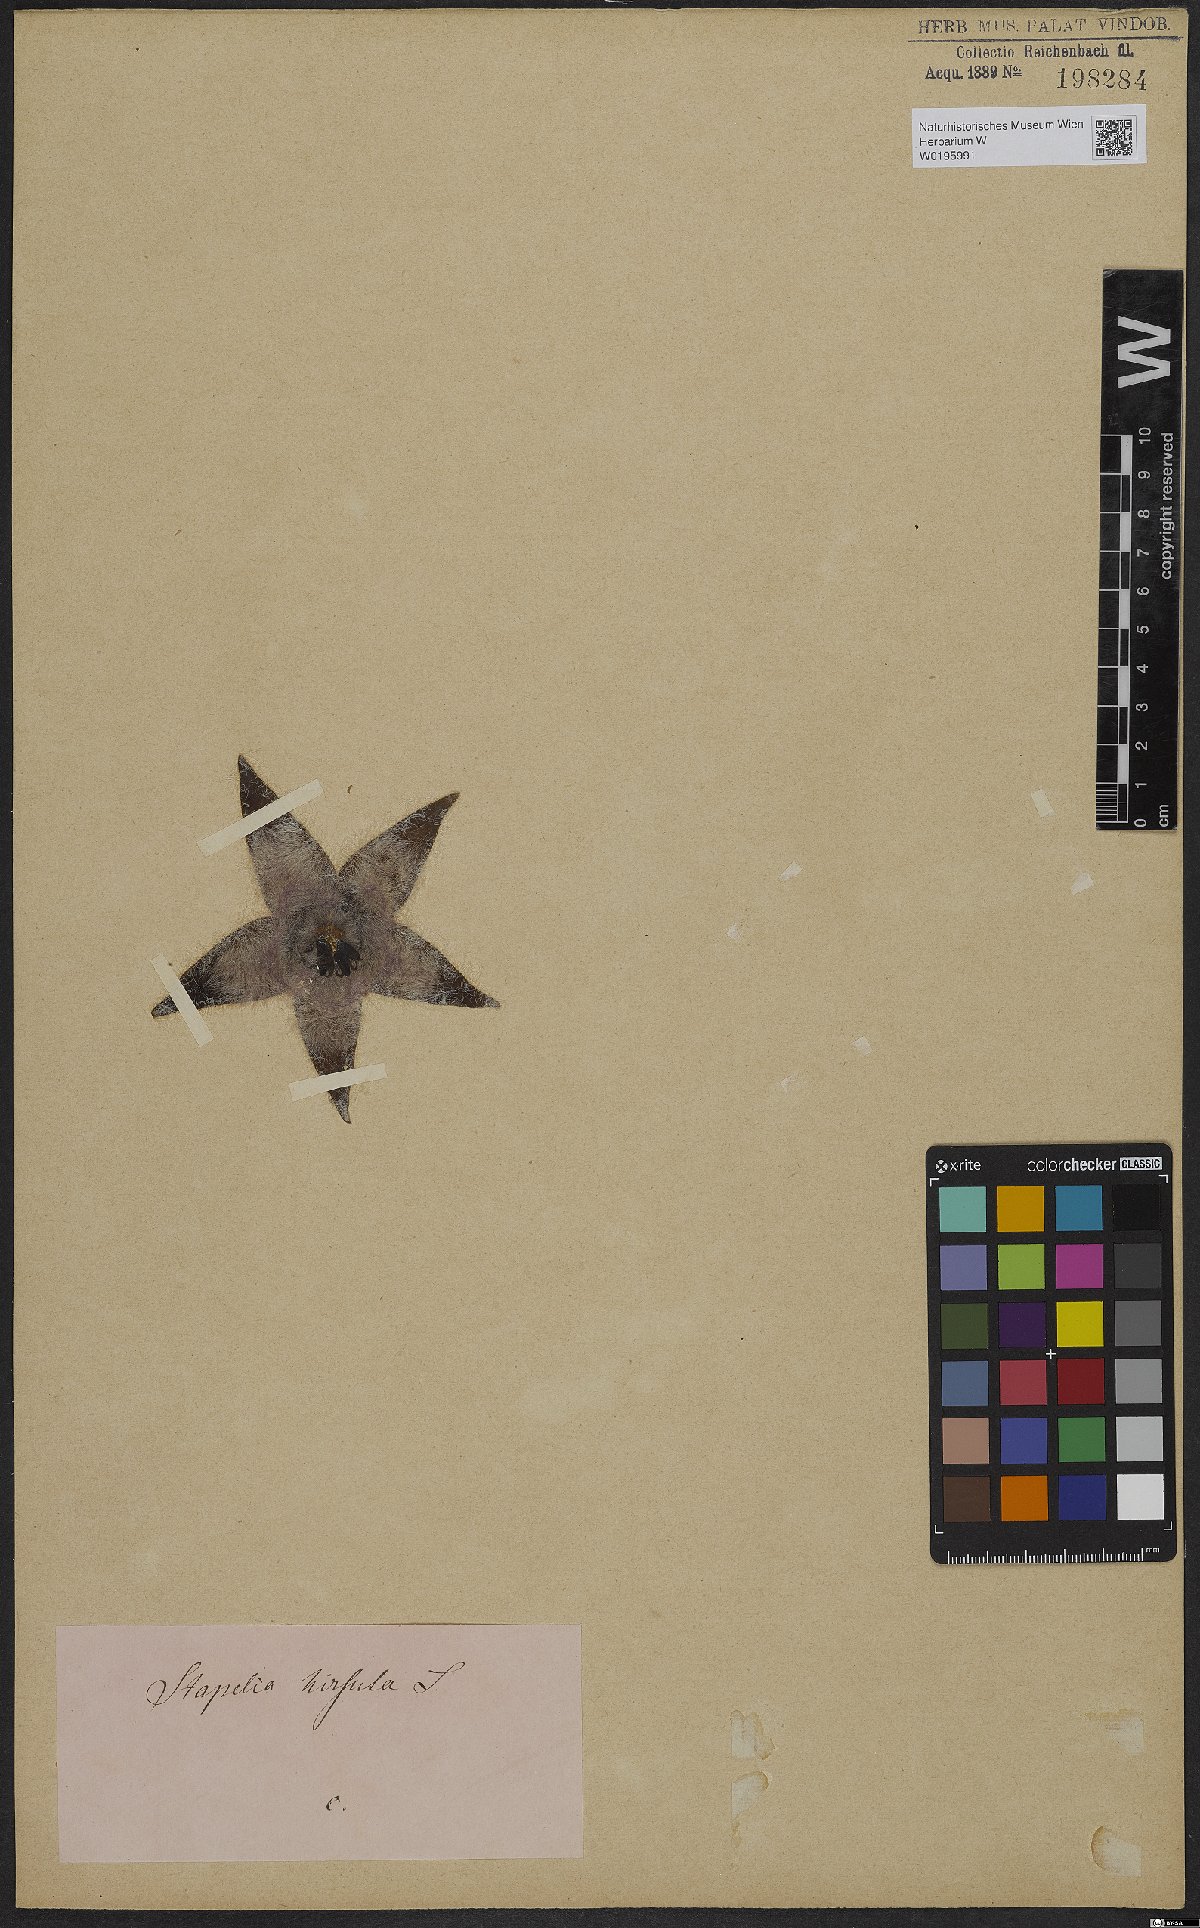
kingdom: Plantae
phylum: Tracheophyta
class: Magnoliopsida
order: Gentianales
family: Apocynaceae
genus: Ceropegia
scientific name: Ceropegia pulvinata
